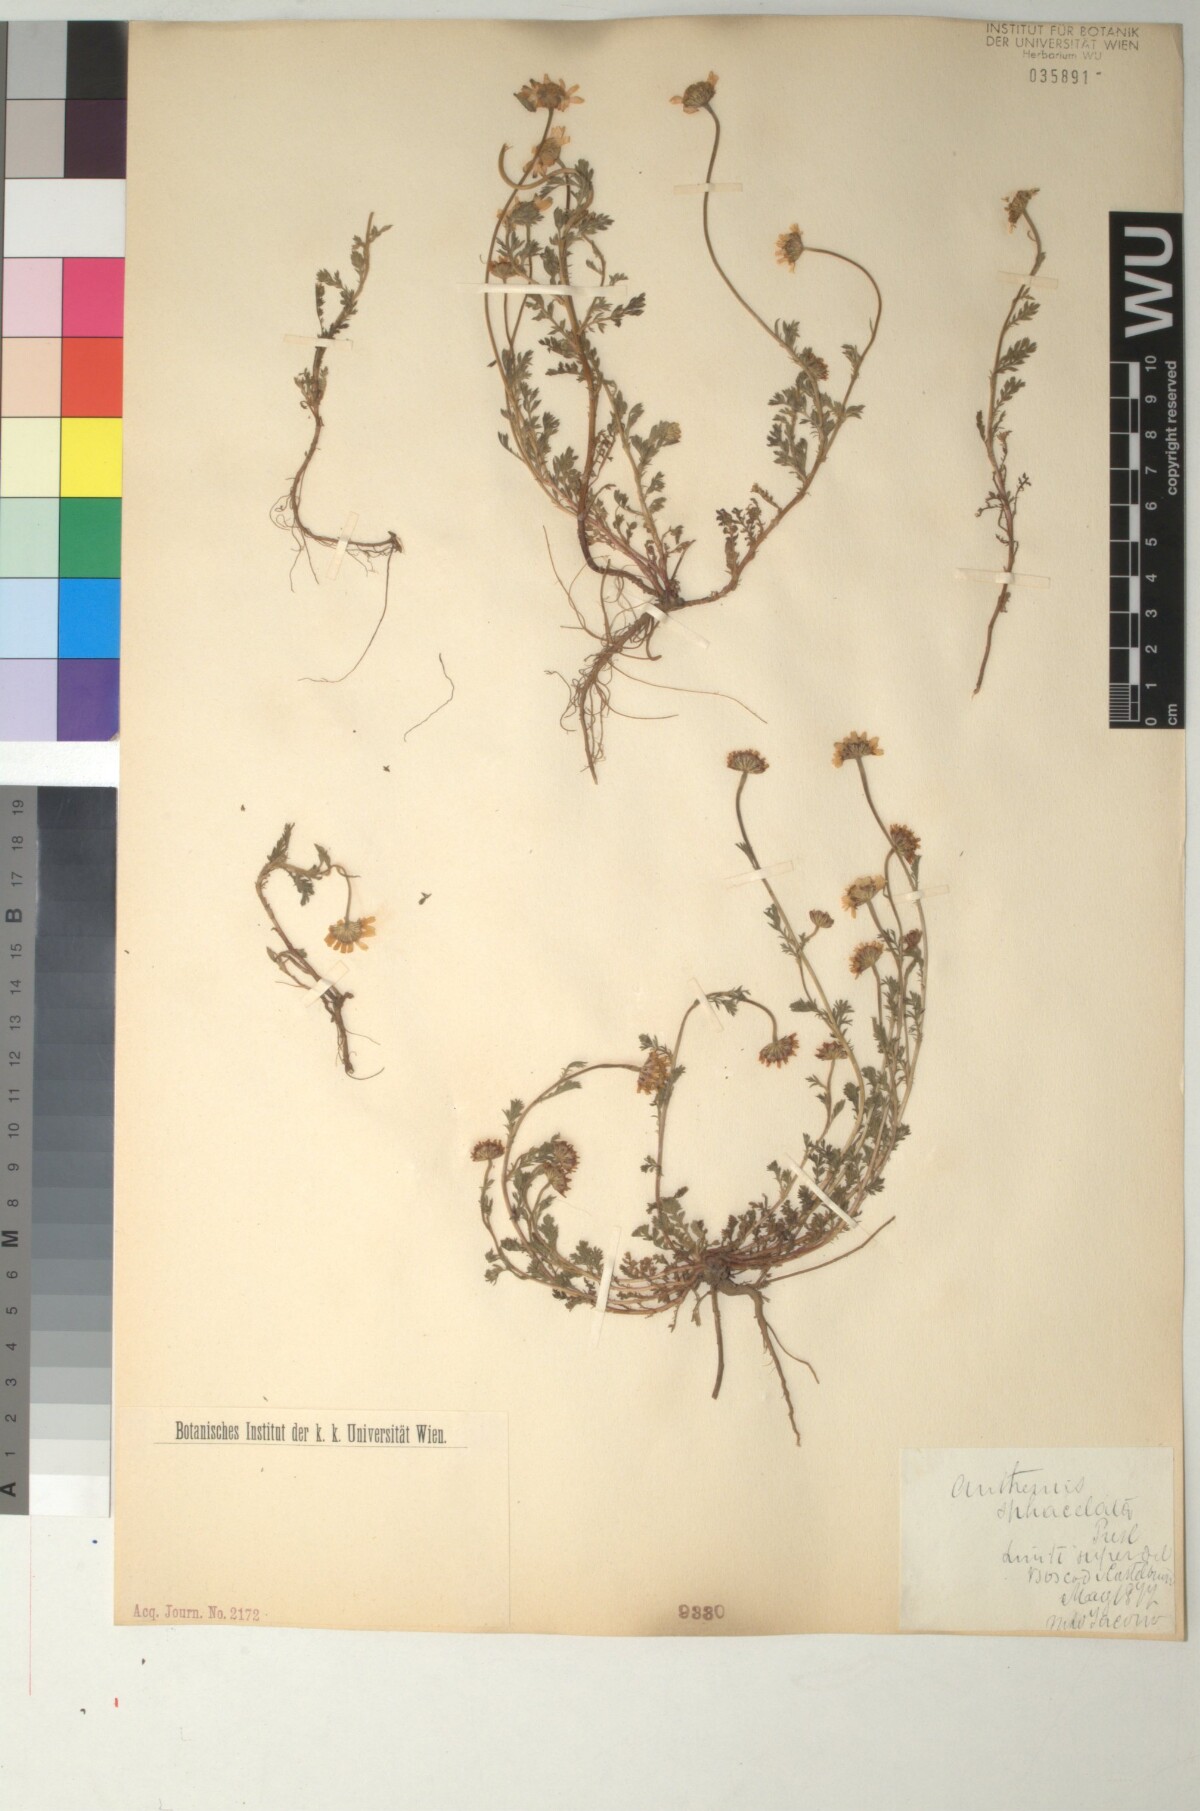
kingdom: Plantae
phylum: Tracheophyta
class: Magnoliopsida
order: Asterales
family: Asteraceae
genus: Anthemis
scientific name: Anthemis arvensis
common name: Corn chamomile
